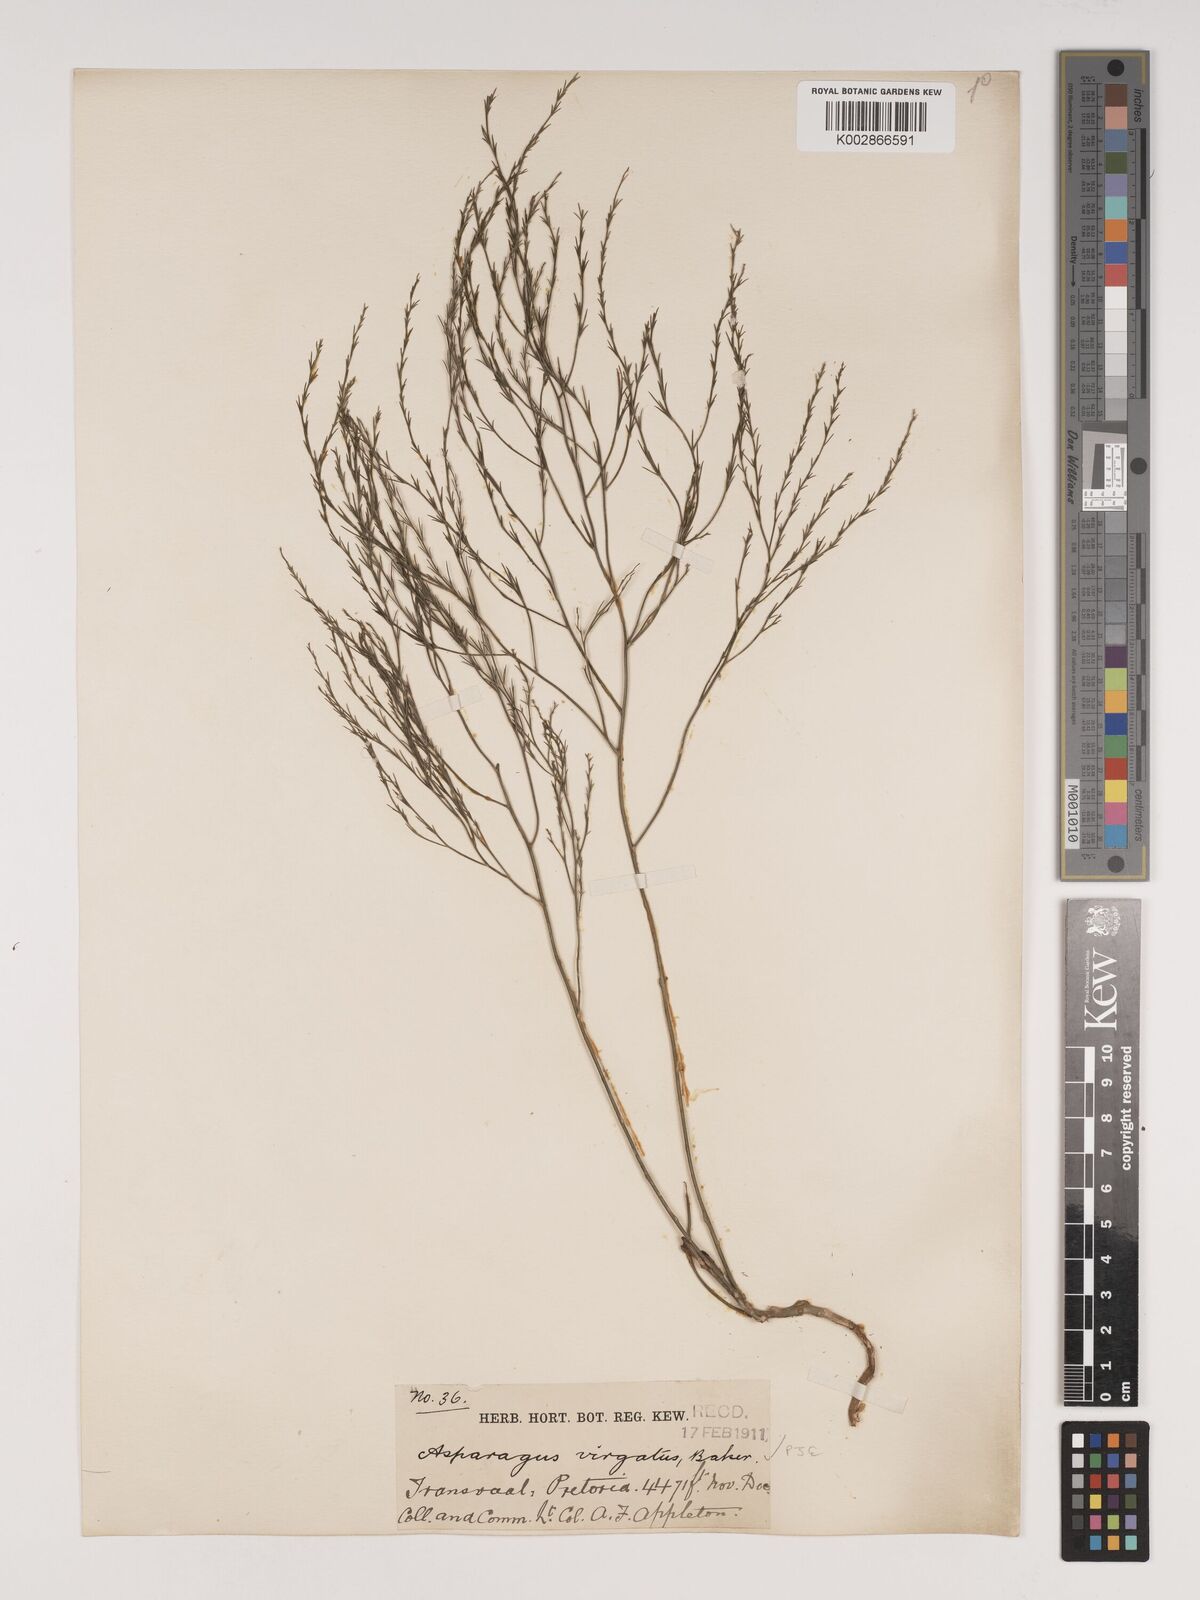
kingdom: Plantae
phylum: Tracheophyta
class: Liliopsida
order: Asparagales
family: Asparagaceae
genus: Asparagus
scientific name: Asparagus virgatus
